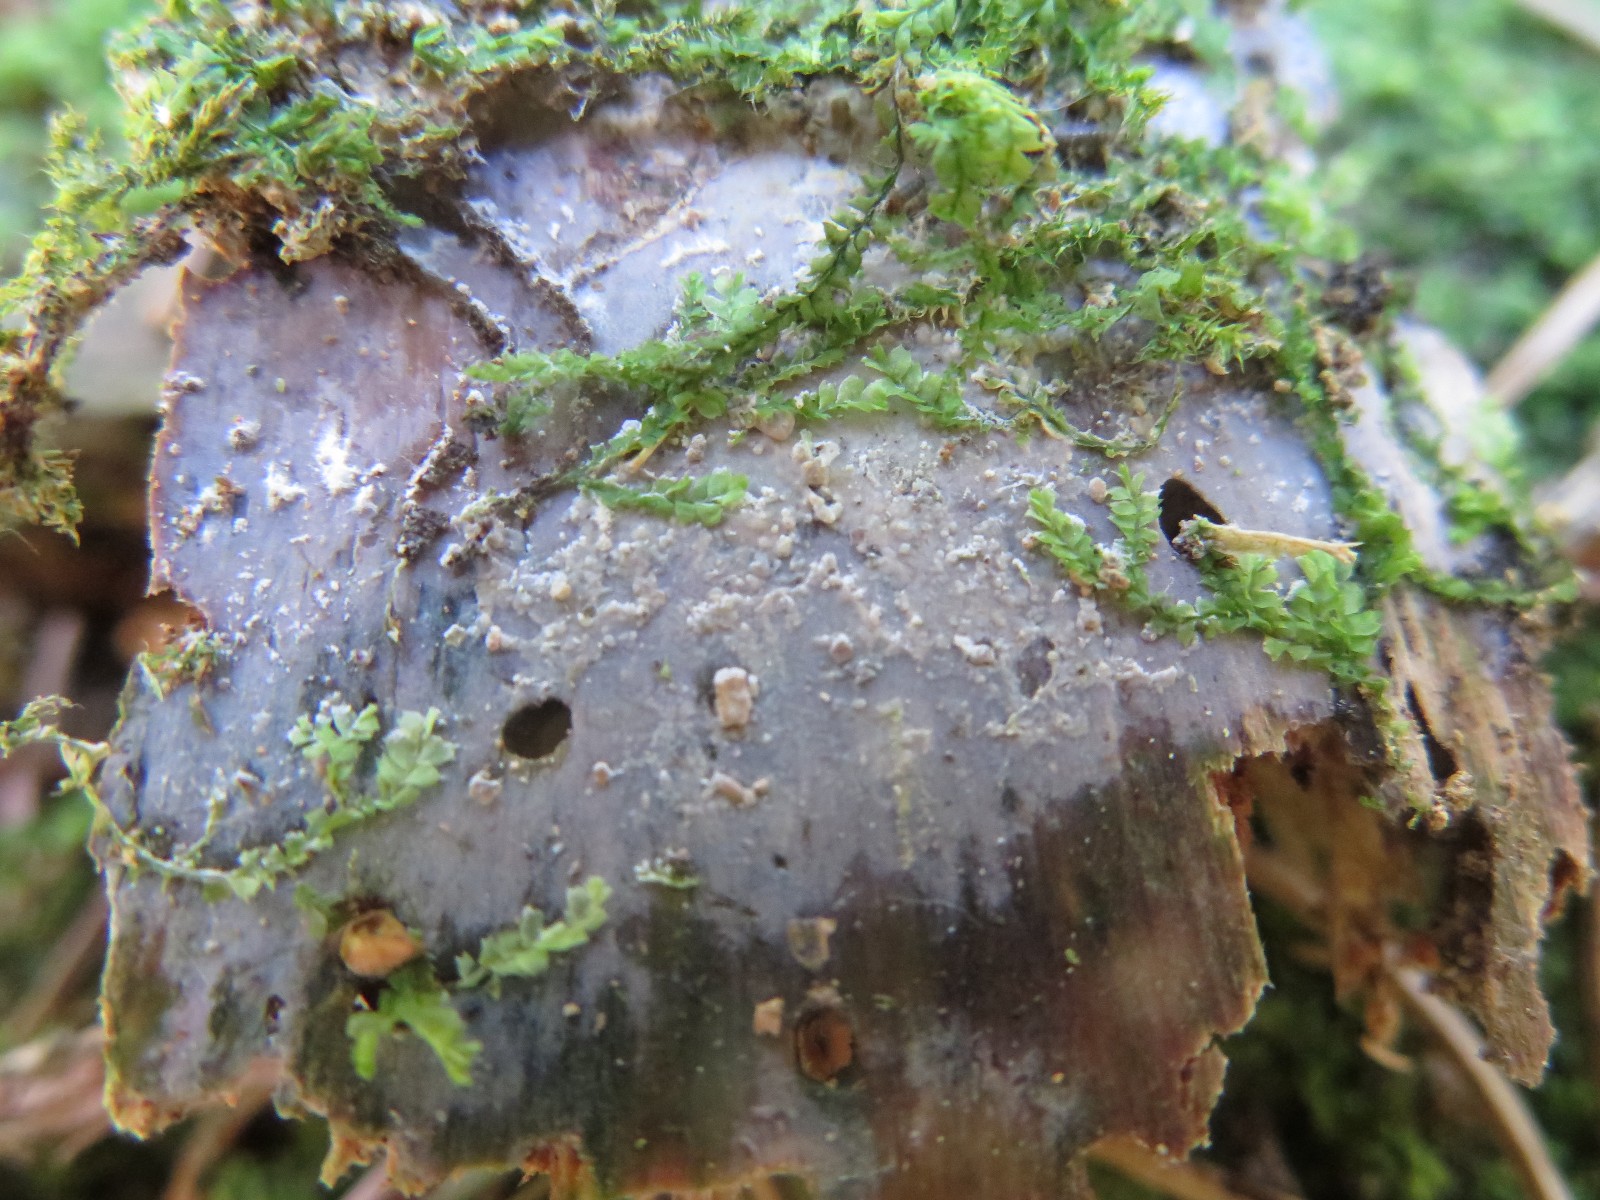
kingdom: Fungi
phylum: Basidiomycota
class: Tremellomycetes
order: Tremellales
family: Exidiaceae
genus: Basidiodendron
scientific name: Basidiodendron
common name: rækkebævresvamp
